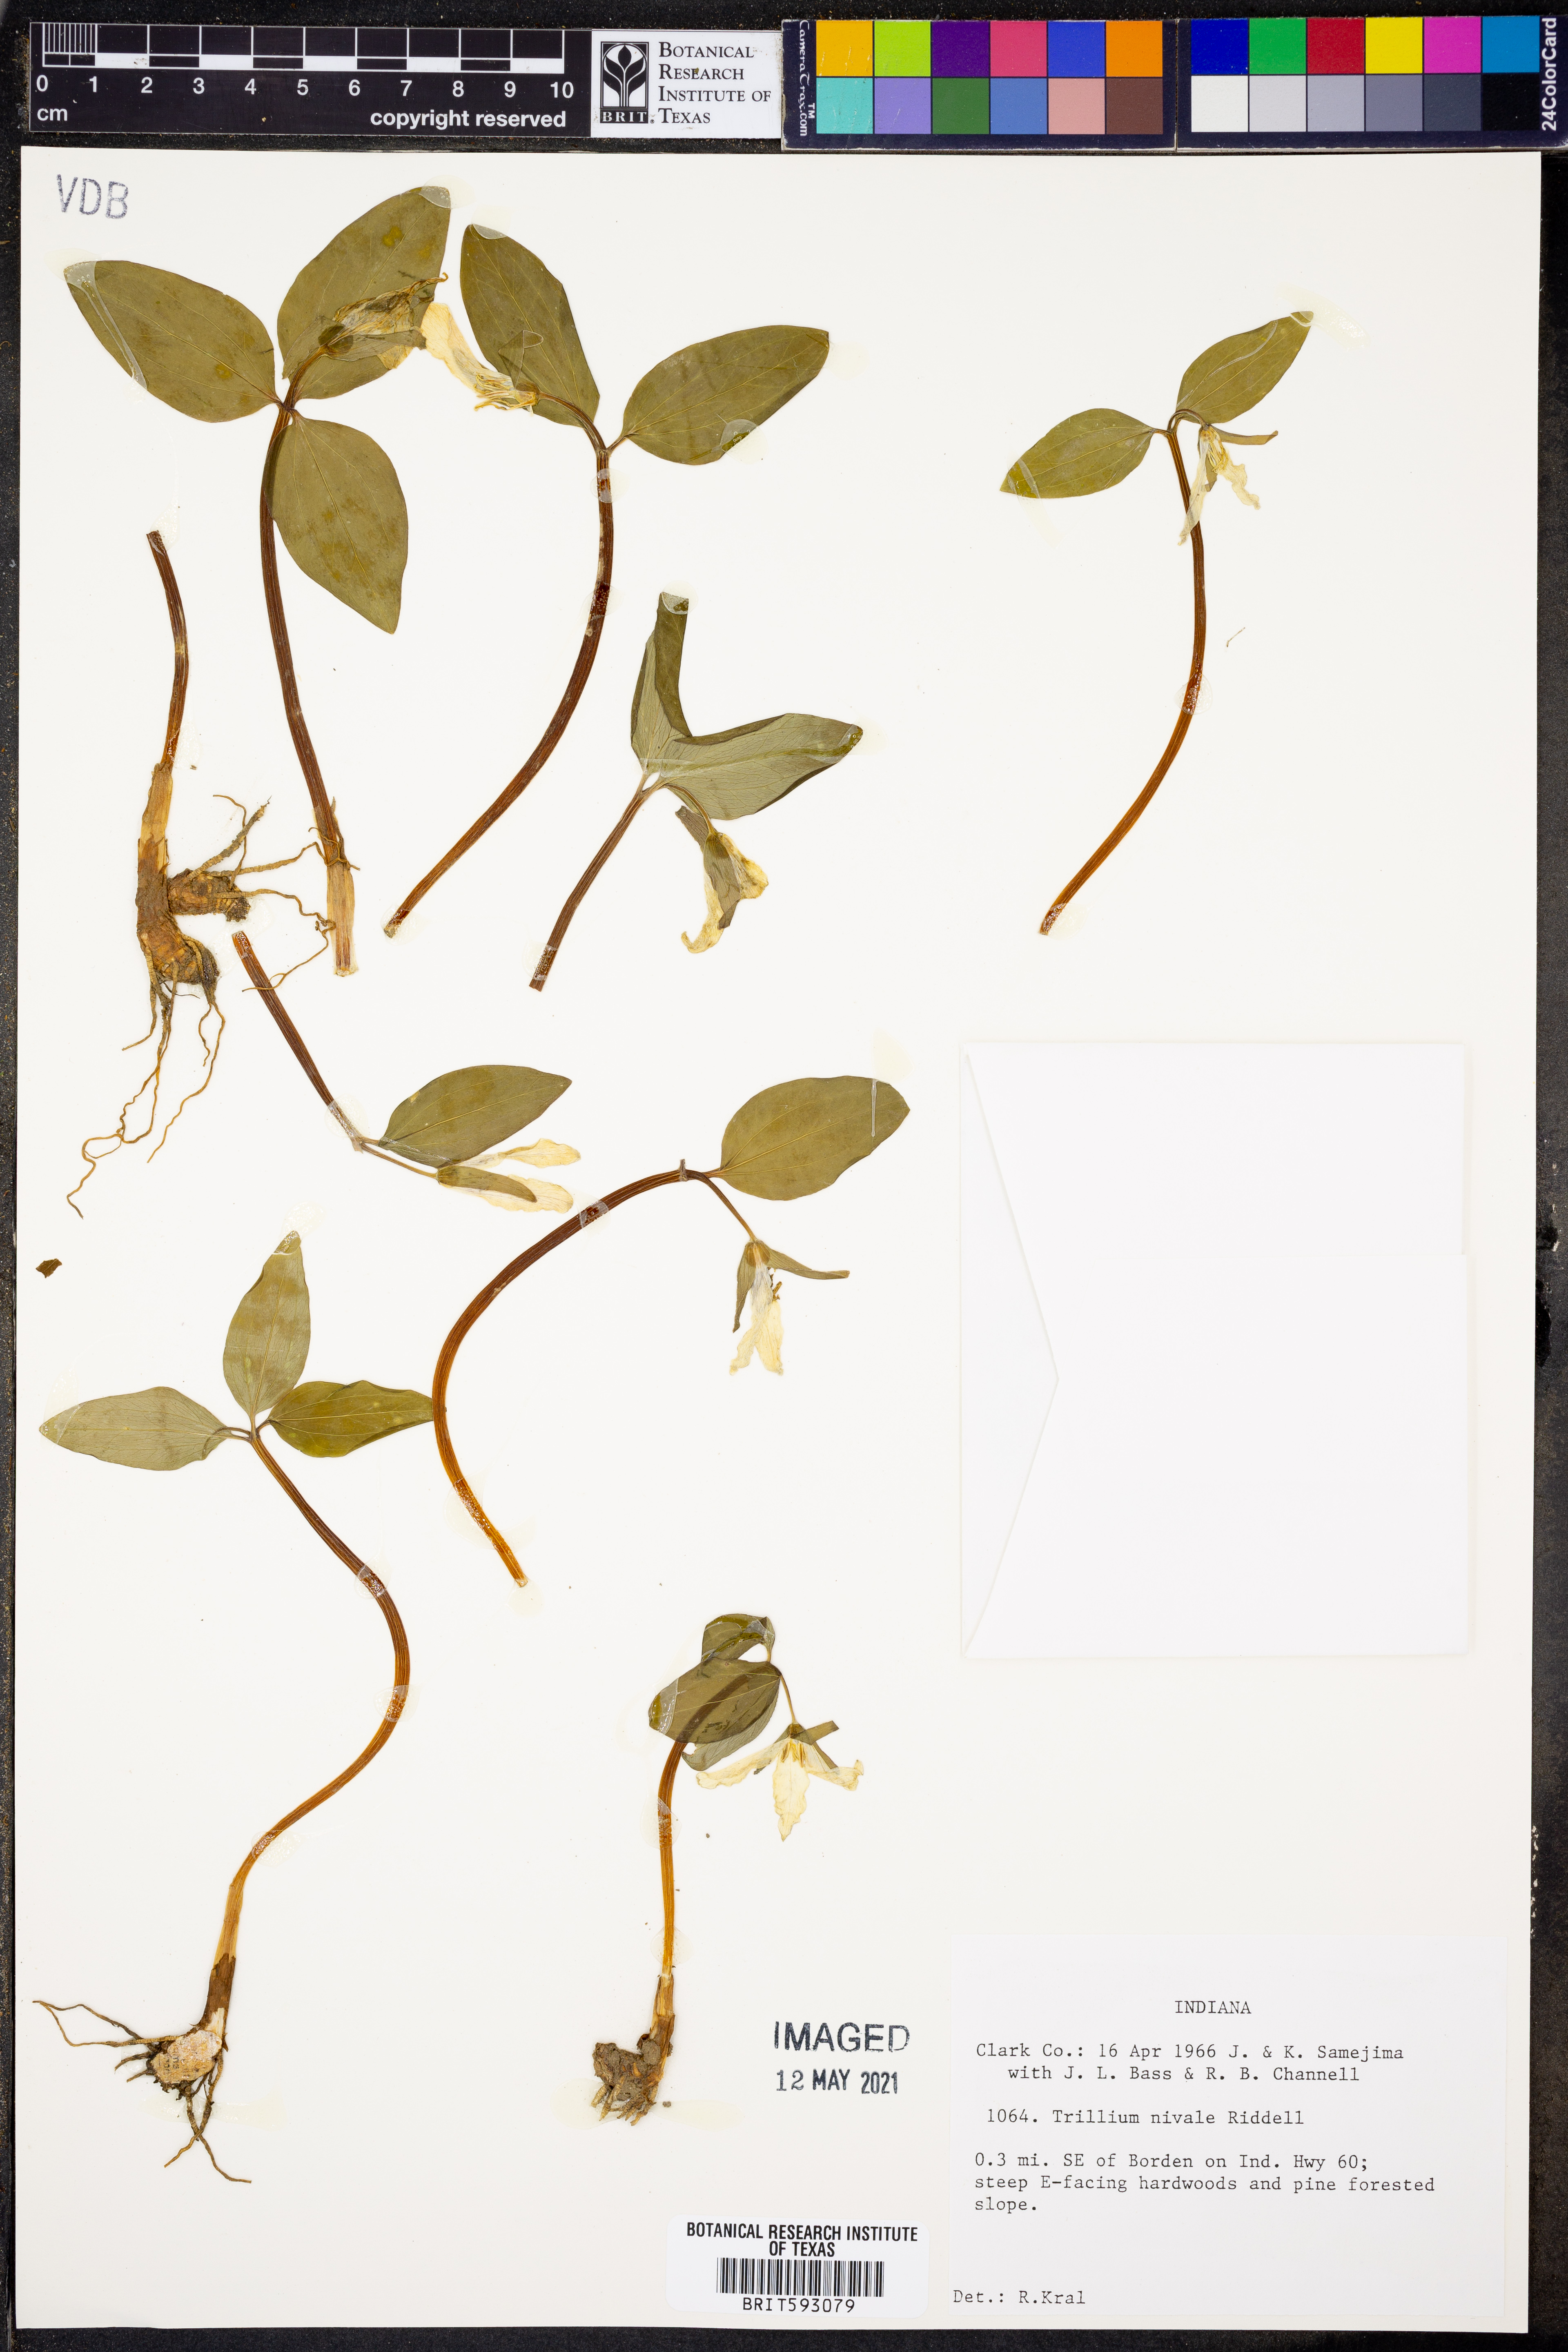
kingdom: Plantae
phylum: Tracheophyta
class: Liliopsida
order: Liliales
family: Melanthiaceae
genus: Trillium
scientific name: Trillium nivale
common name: Dwarf white trillium
